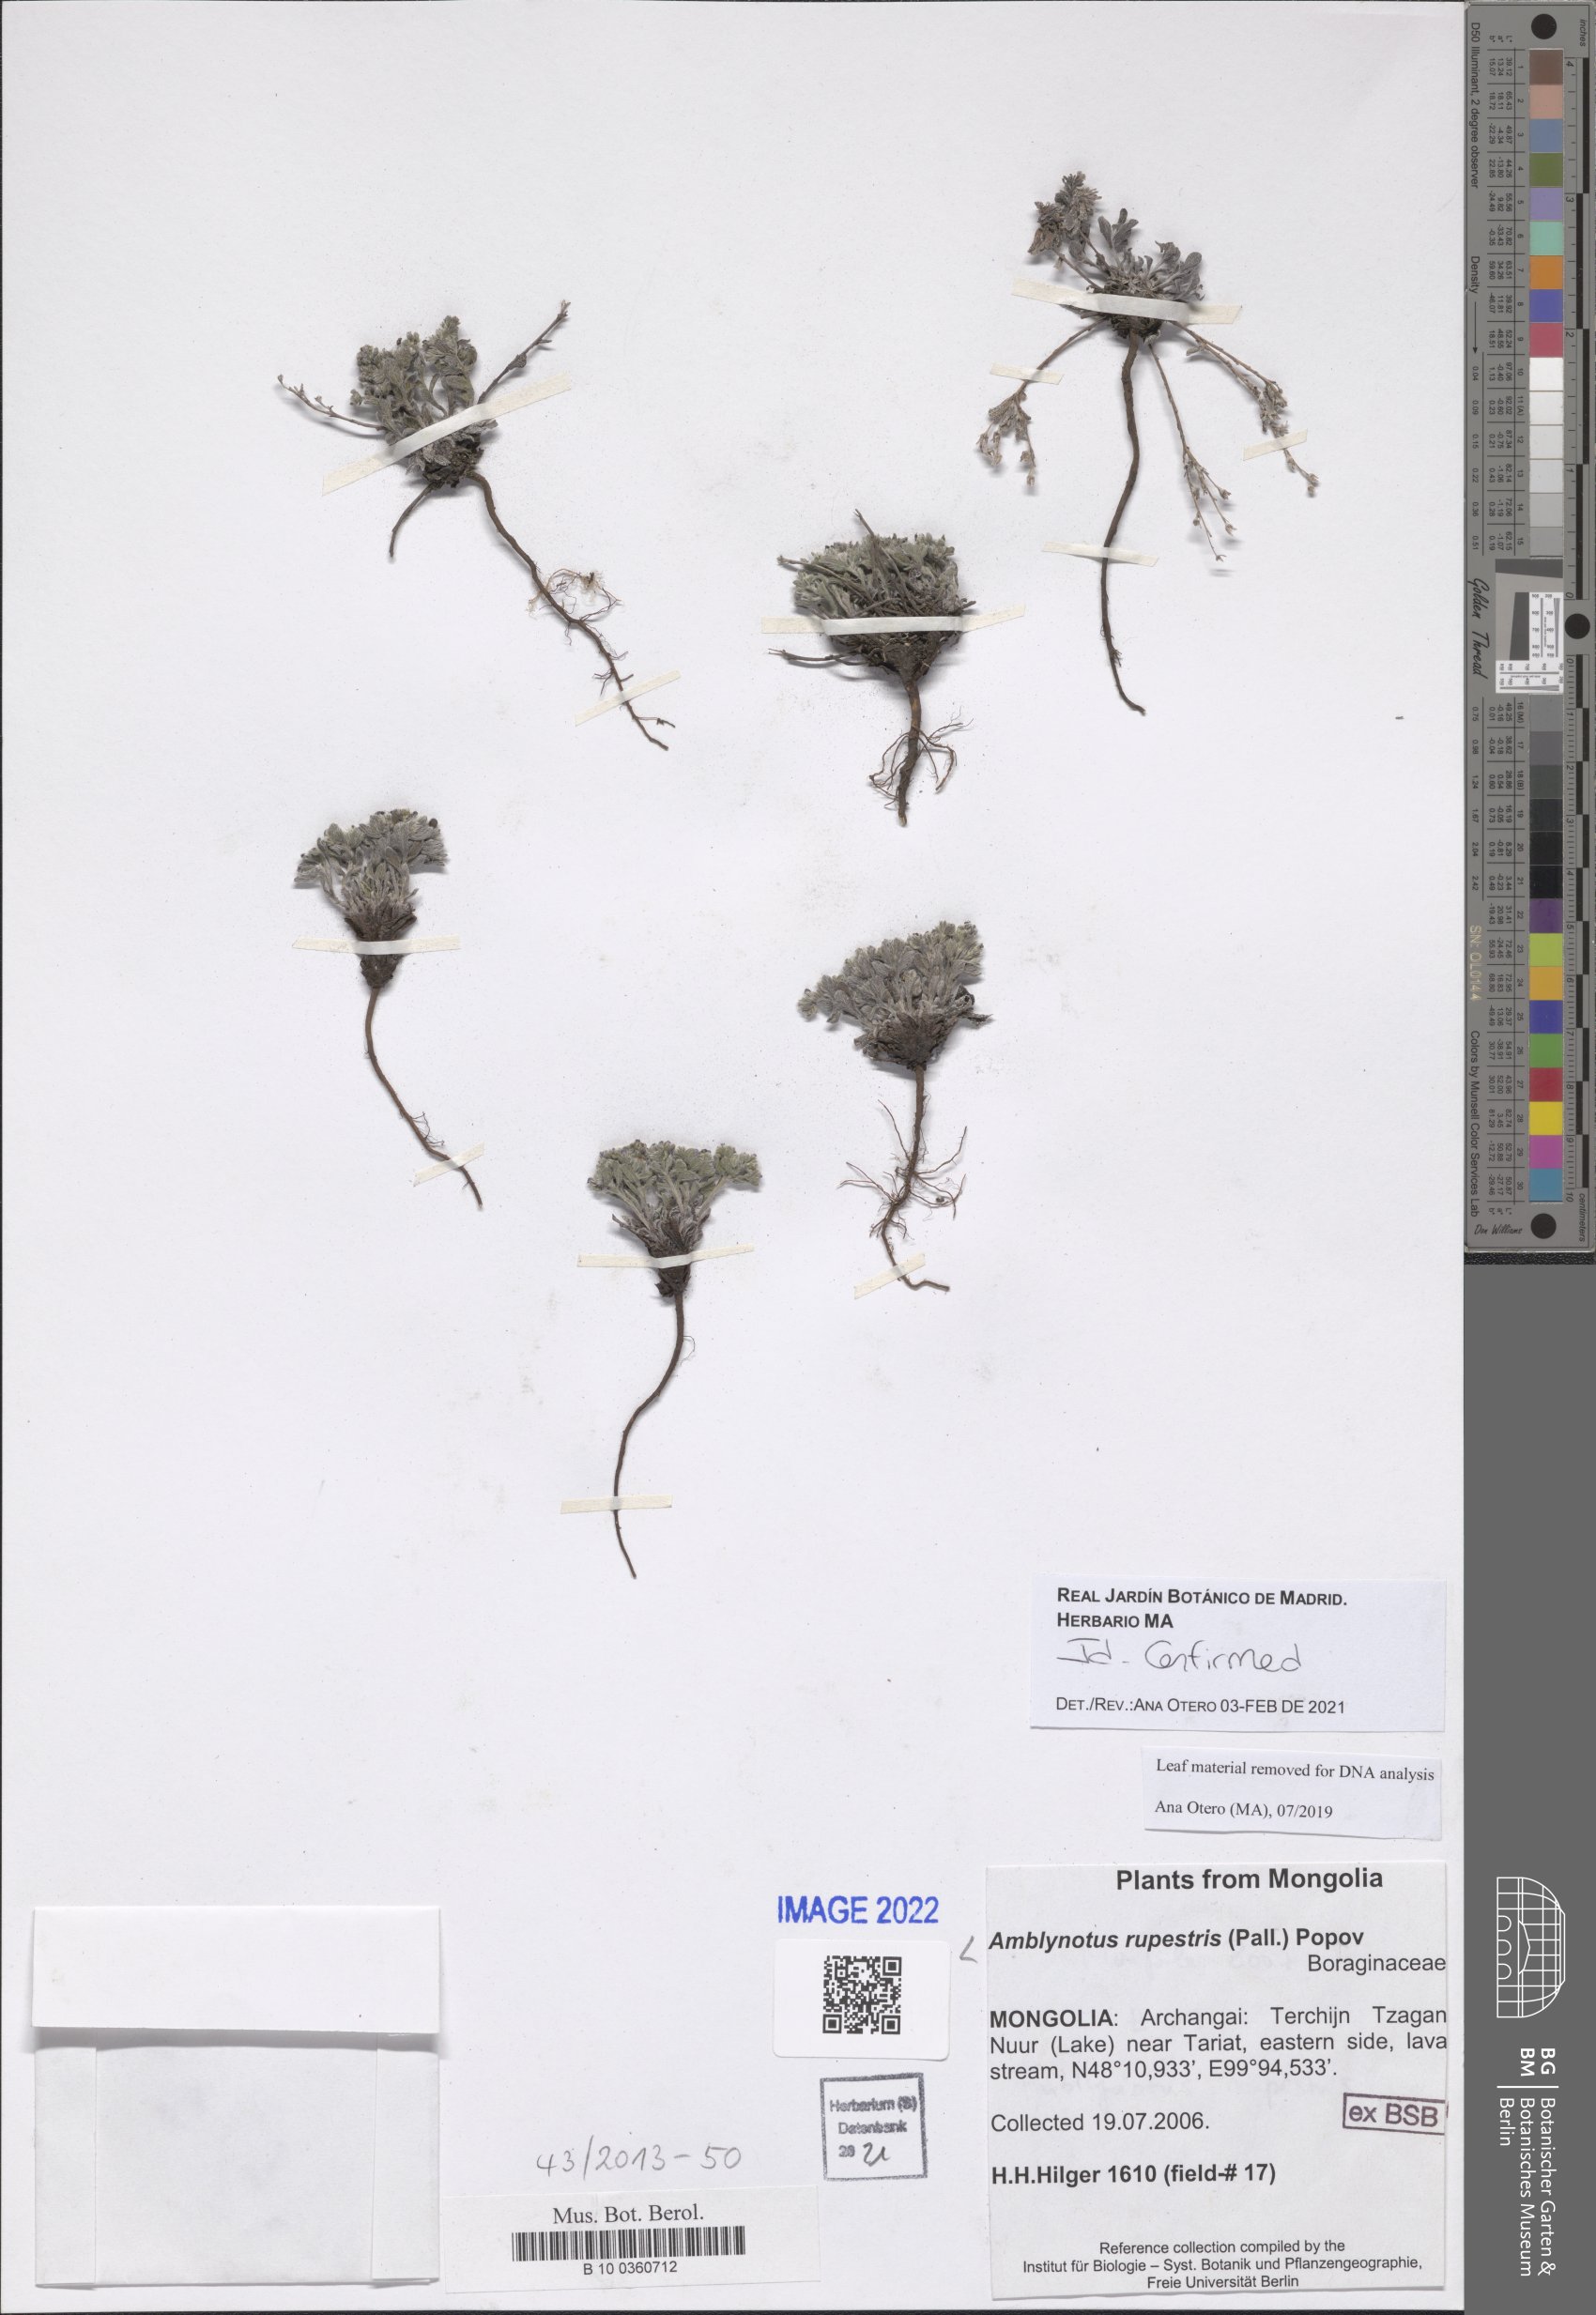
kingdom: Plantae
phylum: Tracheophyta
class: Magnoliopsida
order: Boraginales
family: Boraginaceae
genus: Amblynotus
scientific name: Amblynotus
